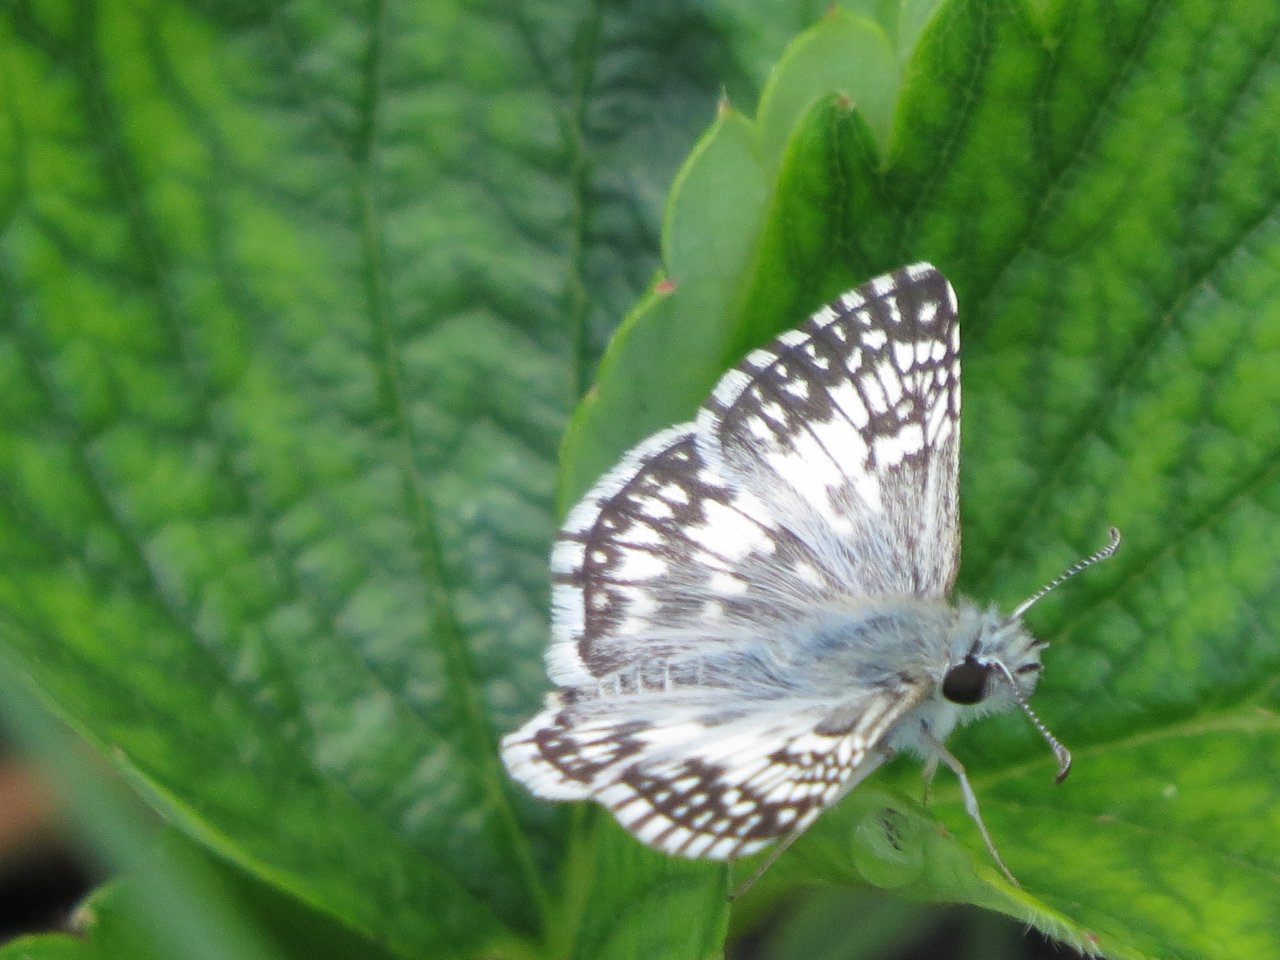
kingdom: Animalia
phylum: Arthropoda
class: Insecta
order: Lepidoptera
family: Hesperiidae
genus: Pyrgus
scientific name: Pyrgus communis
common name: White Checkered-Skipper
